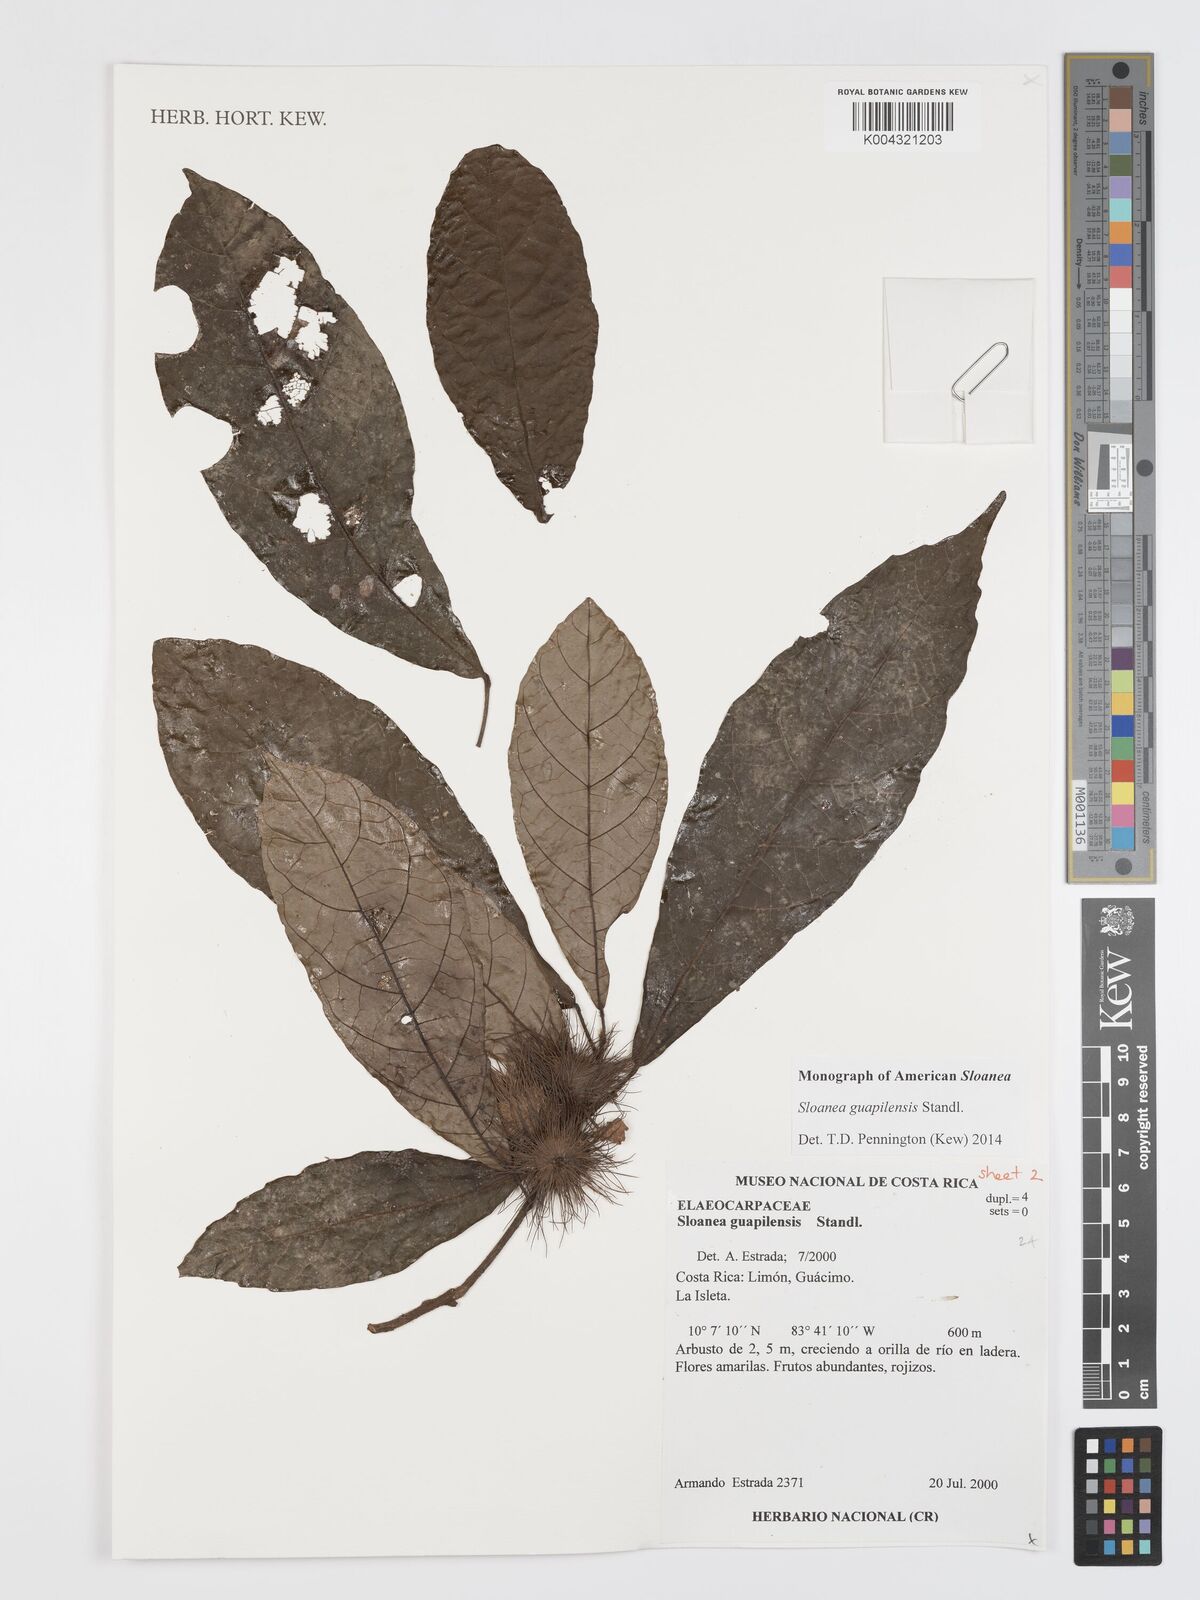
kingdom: Plantae
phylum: Tracheophyta
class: Magnoliopsida
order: Oxalidales
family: Elaeocarpaceae
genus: Sloanea
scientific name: Sloanea guapilensis
